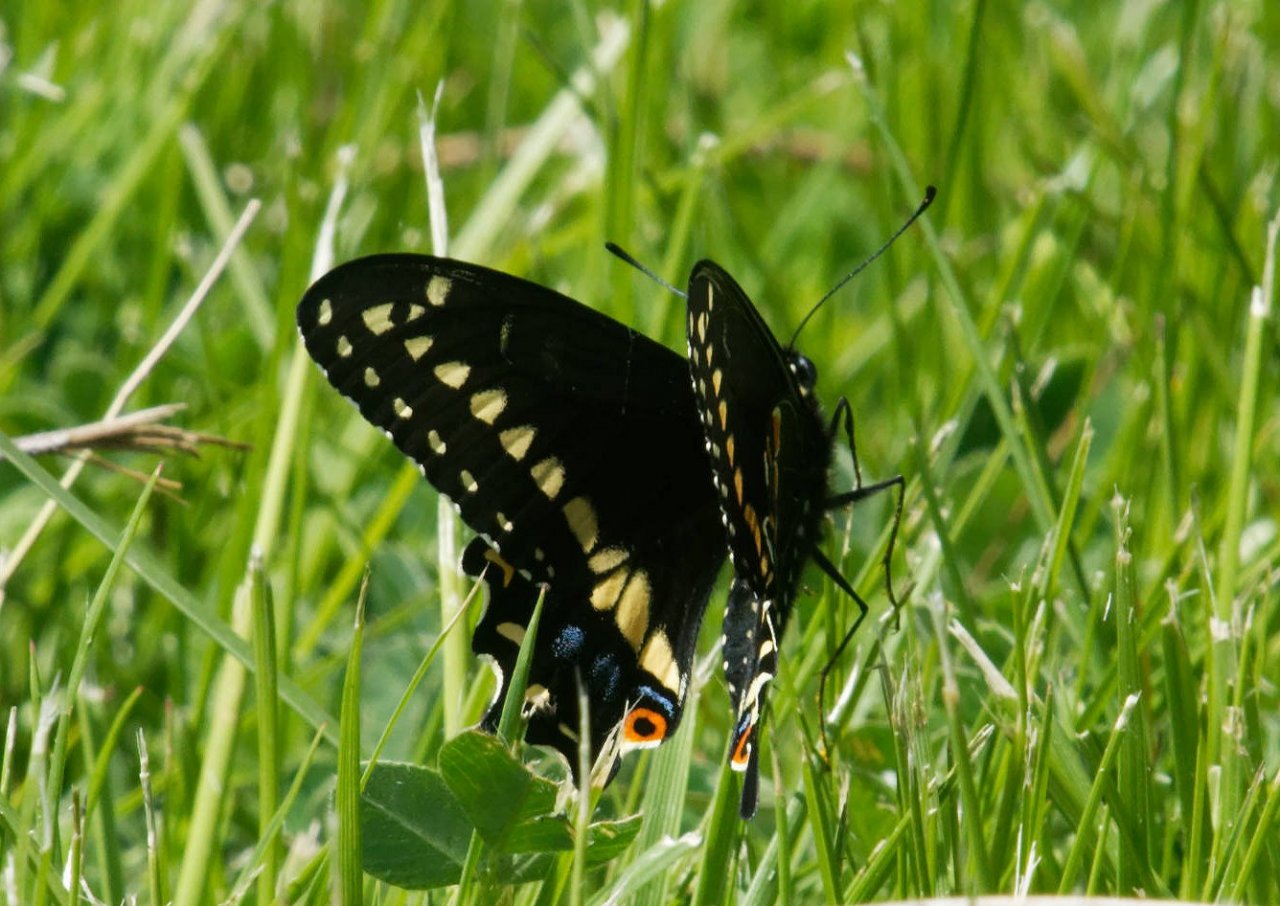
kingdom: Animalia
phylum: Arthropoda
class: Insecta
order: Lepidoptera
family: Papilionidae
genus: Papilio
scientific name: Papilio polyxenes
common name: Black Swallowtail
